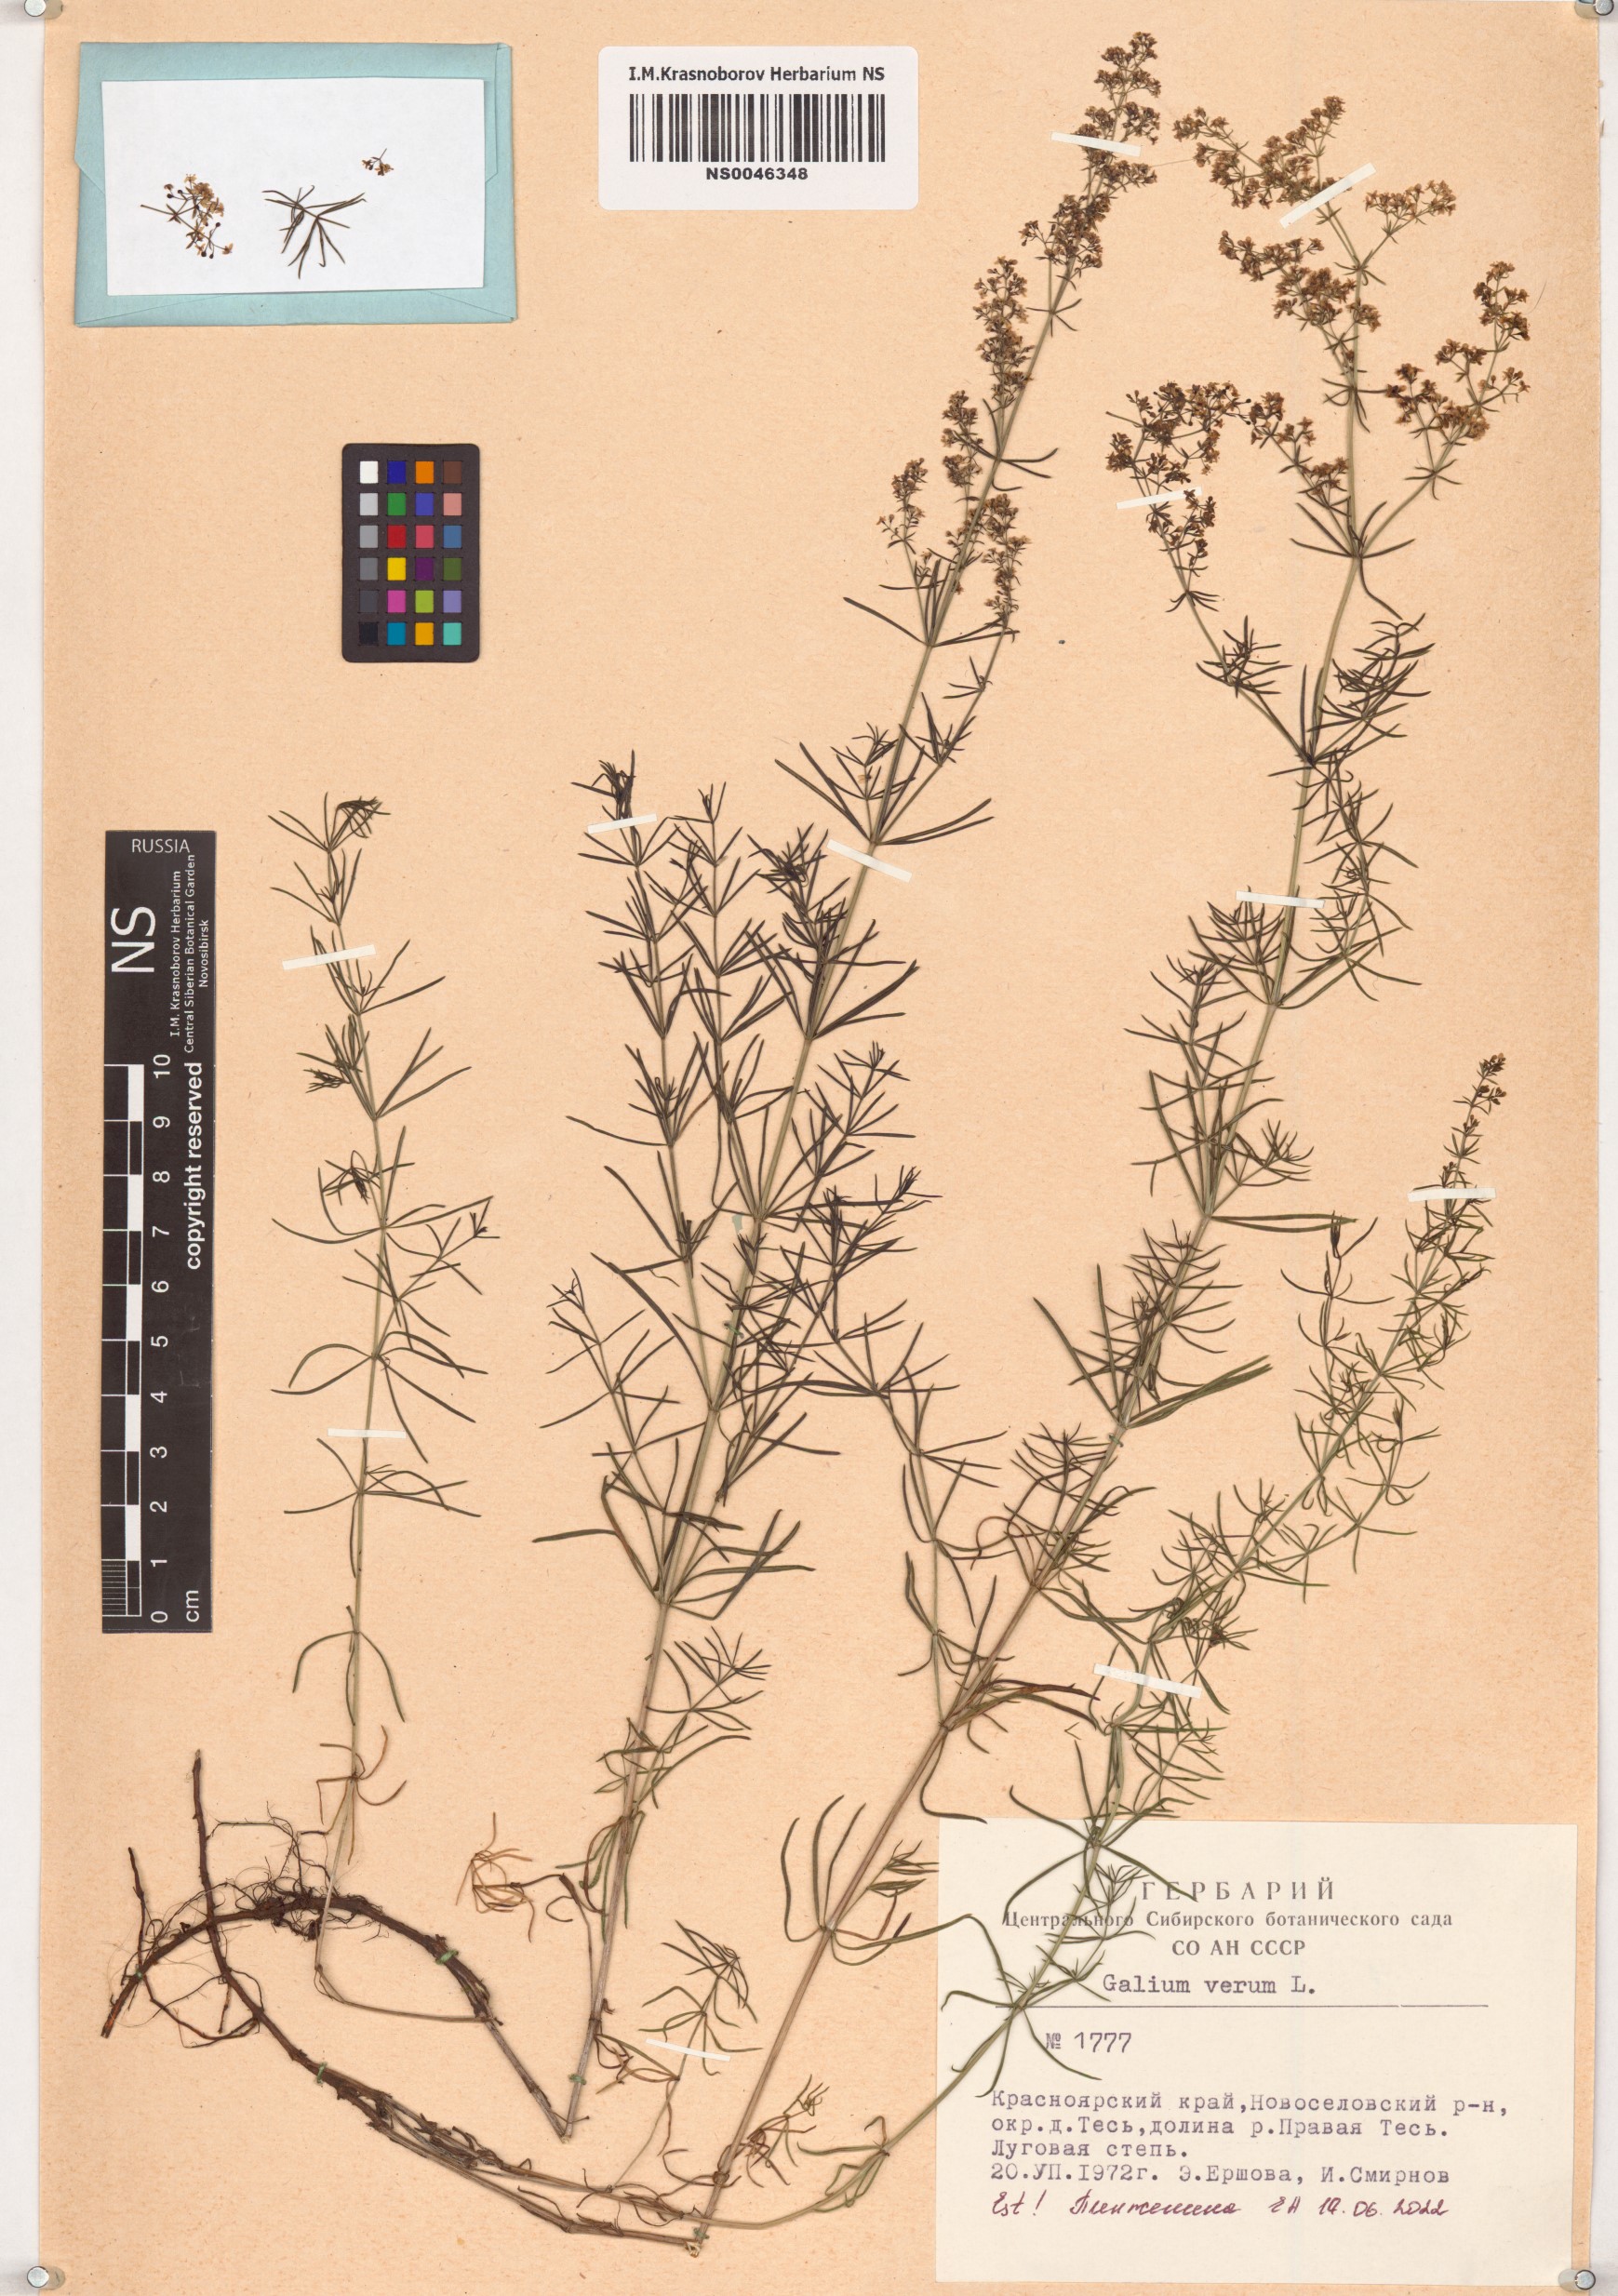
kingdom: Plantae
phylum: Tracheophyta
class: Magnoliopsida
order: Gentianales
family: Rubiaceae
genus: Galium
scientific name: Galium verum
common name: Lady's bedstraw
